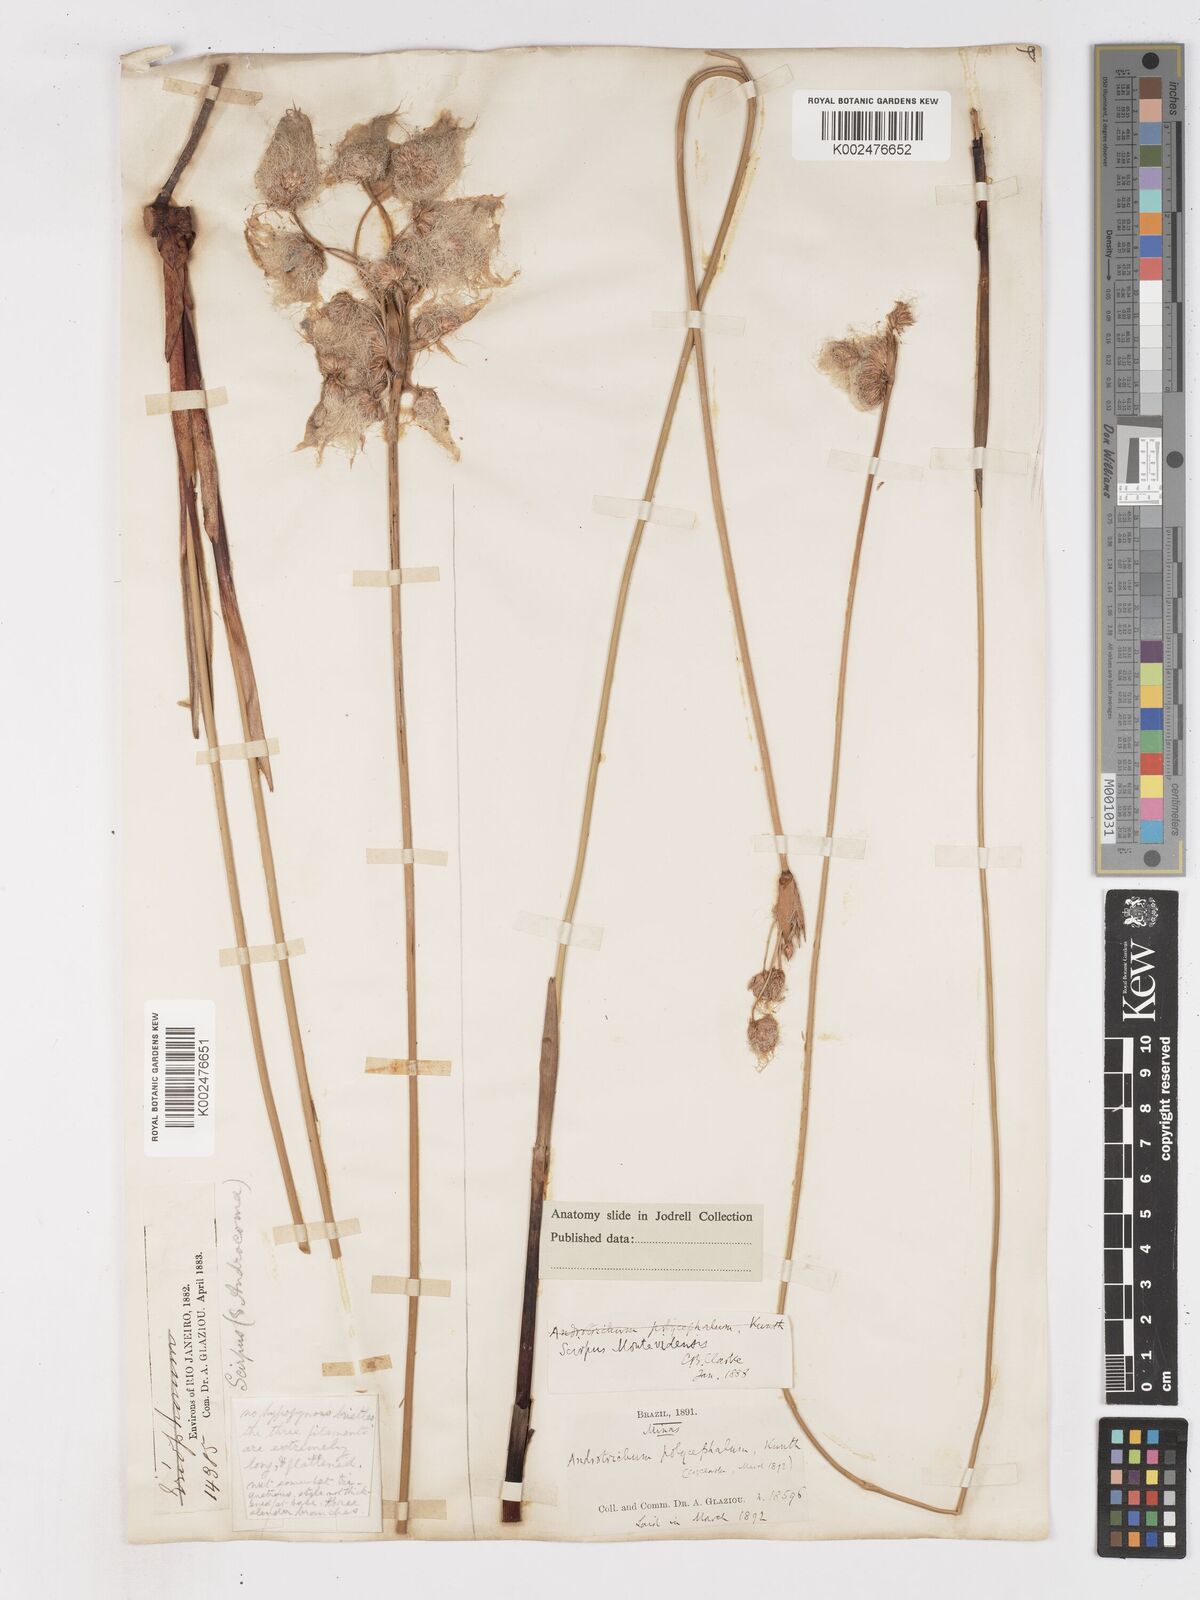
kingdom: Plantae
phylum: Tracheophyta
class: Liliopsida
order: Poales
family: Cyperaceae
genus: Cyperus
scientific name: Cyperus
